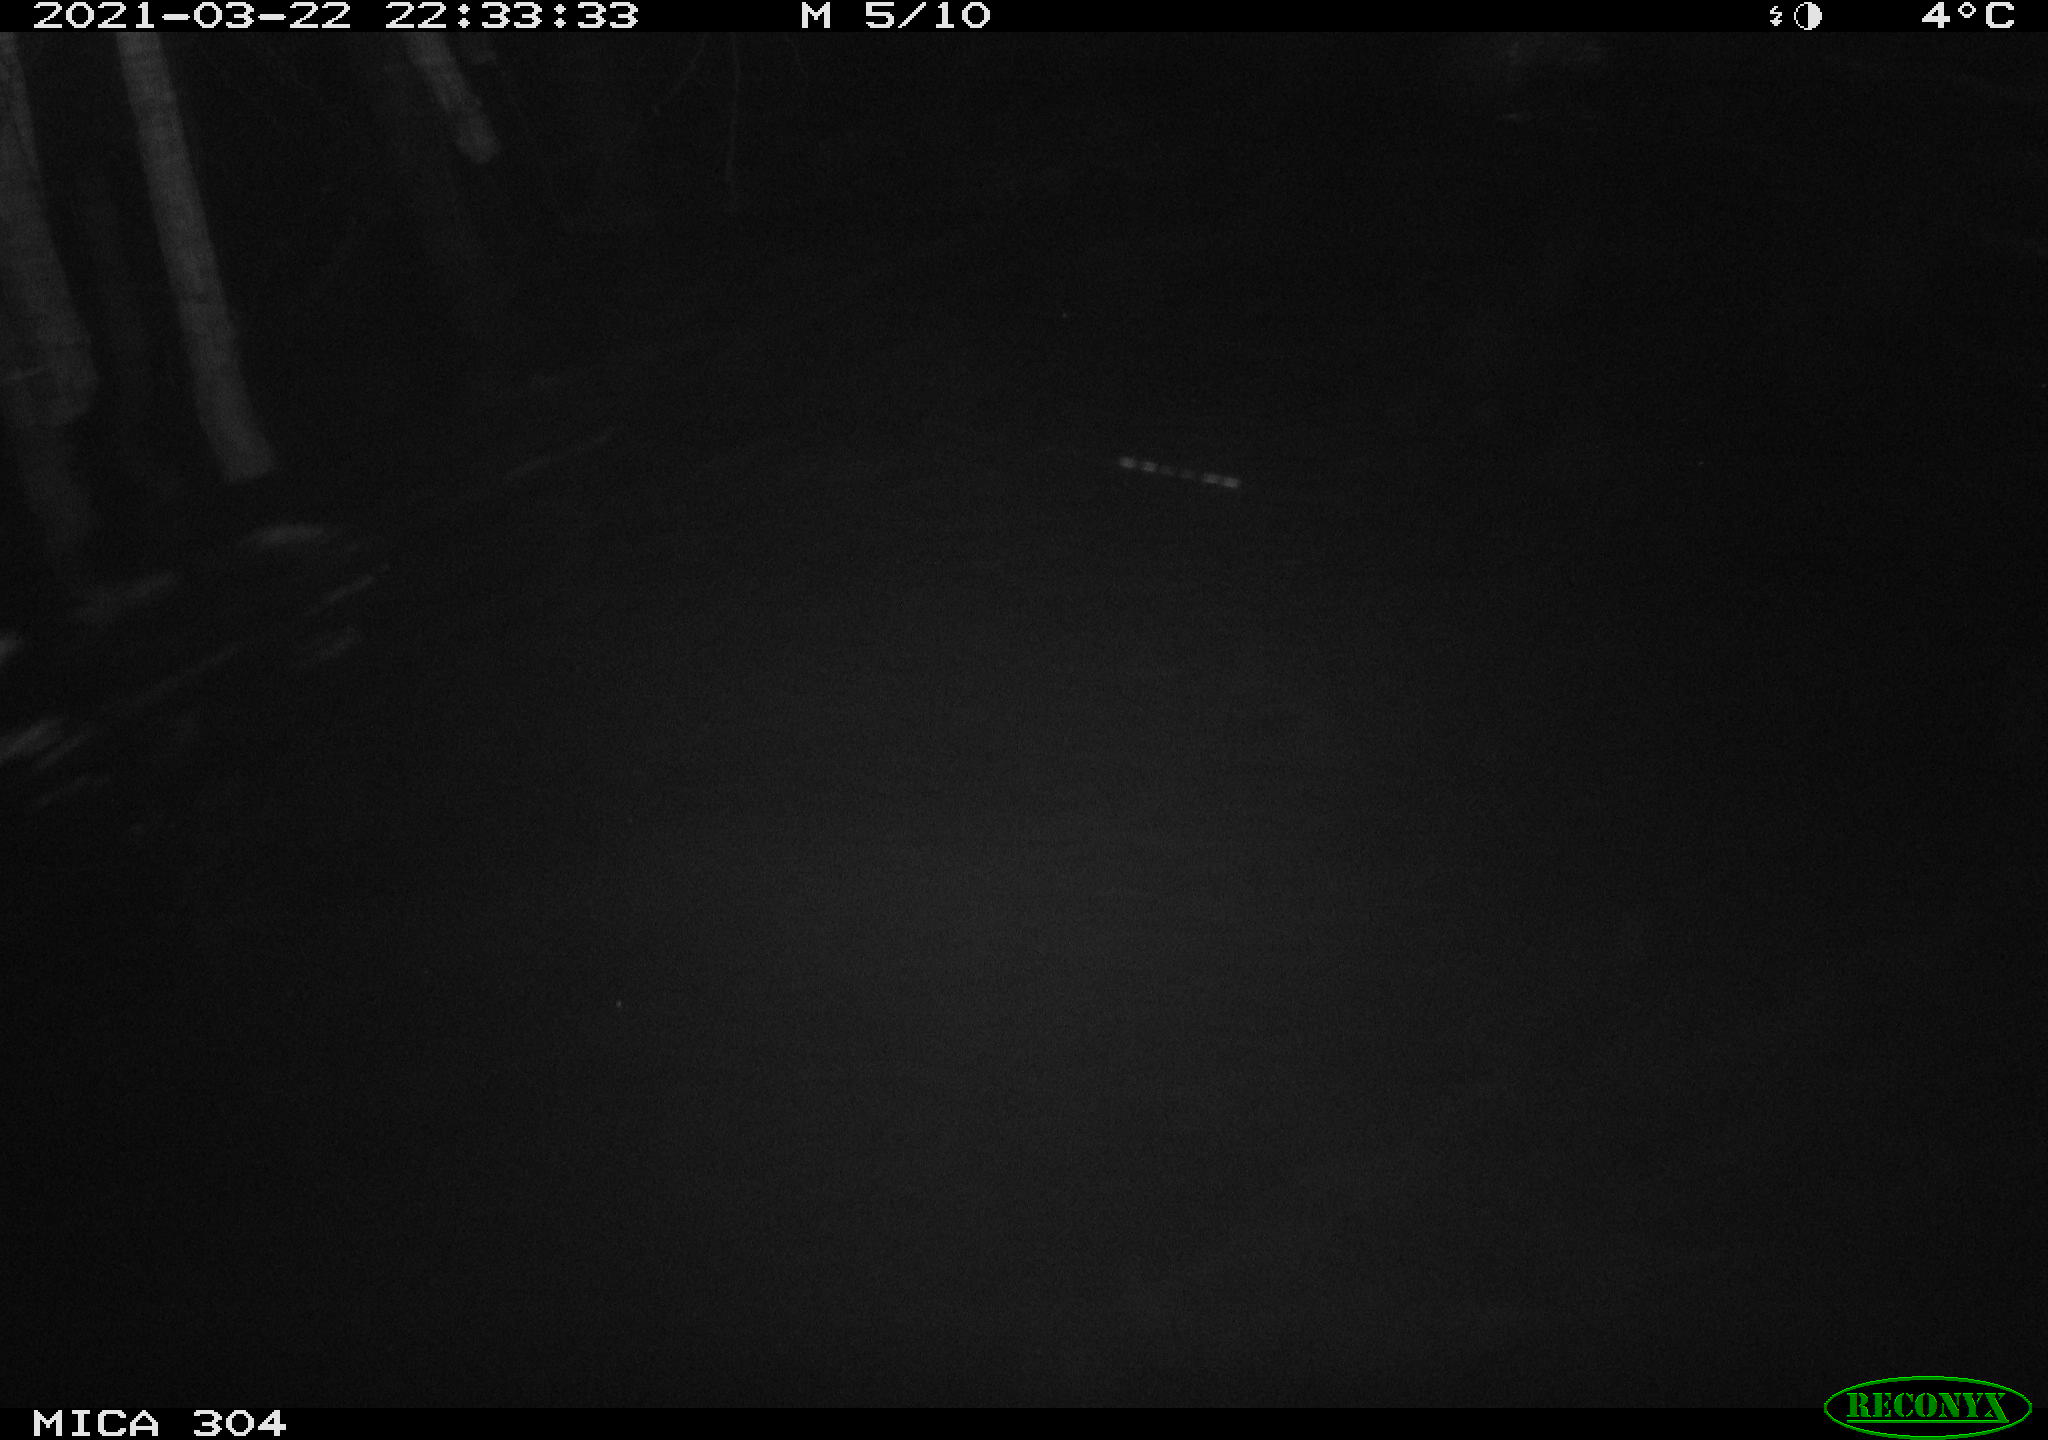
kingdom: Animalia
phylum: Chordata
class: Aves
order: Anseriformes
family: Anatidae
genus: Anas
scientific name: Anas platyrhynchos
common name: Mallard
